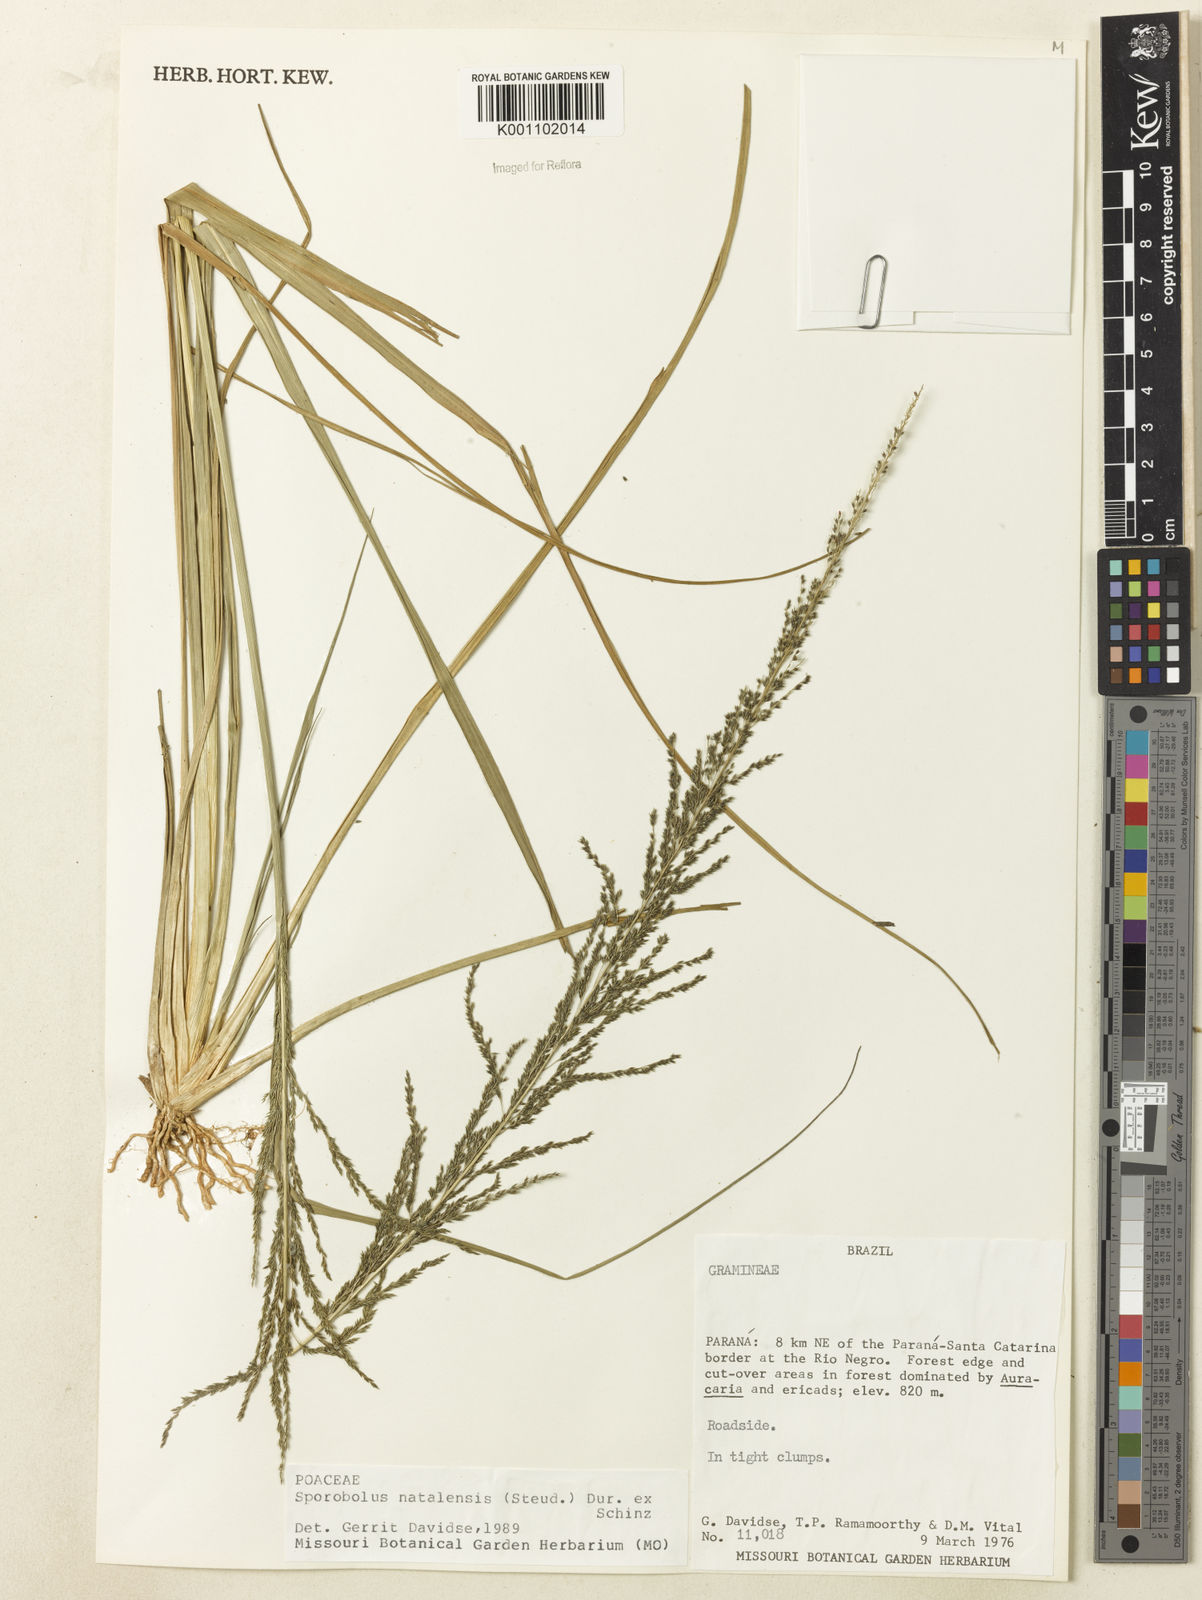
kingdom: Plantae
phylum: Tracheophyta
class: Liliopsida
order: Poales
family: Poaceae
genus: Sporobolus
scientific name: Sporobolus natalensis
